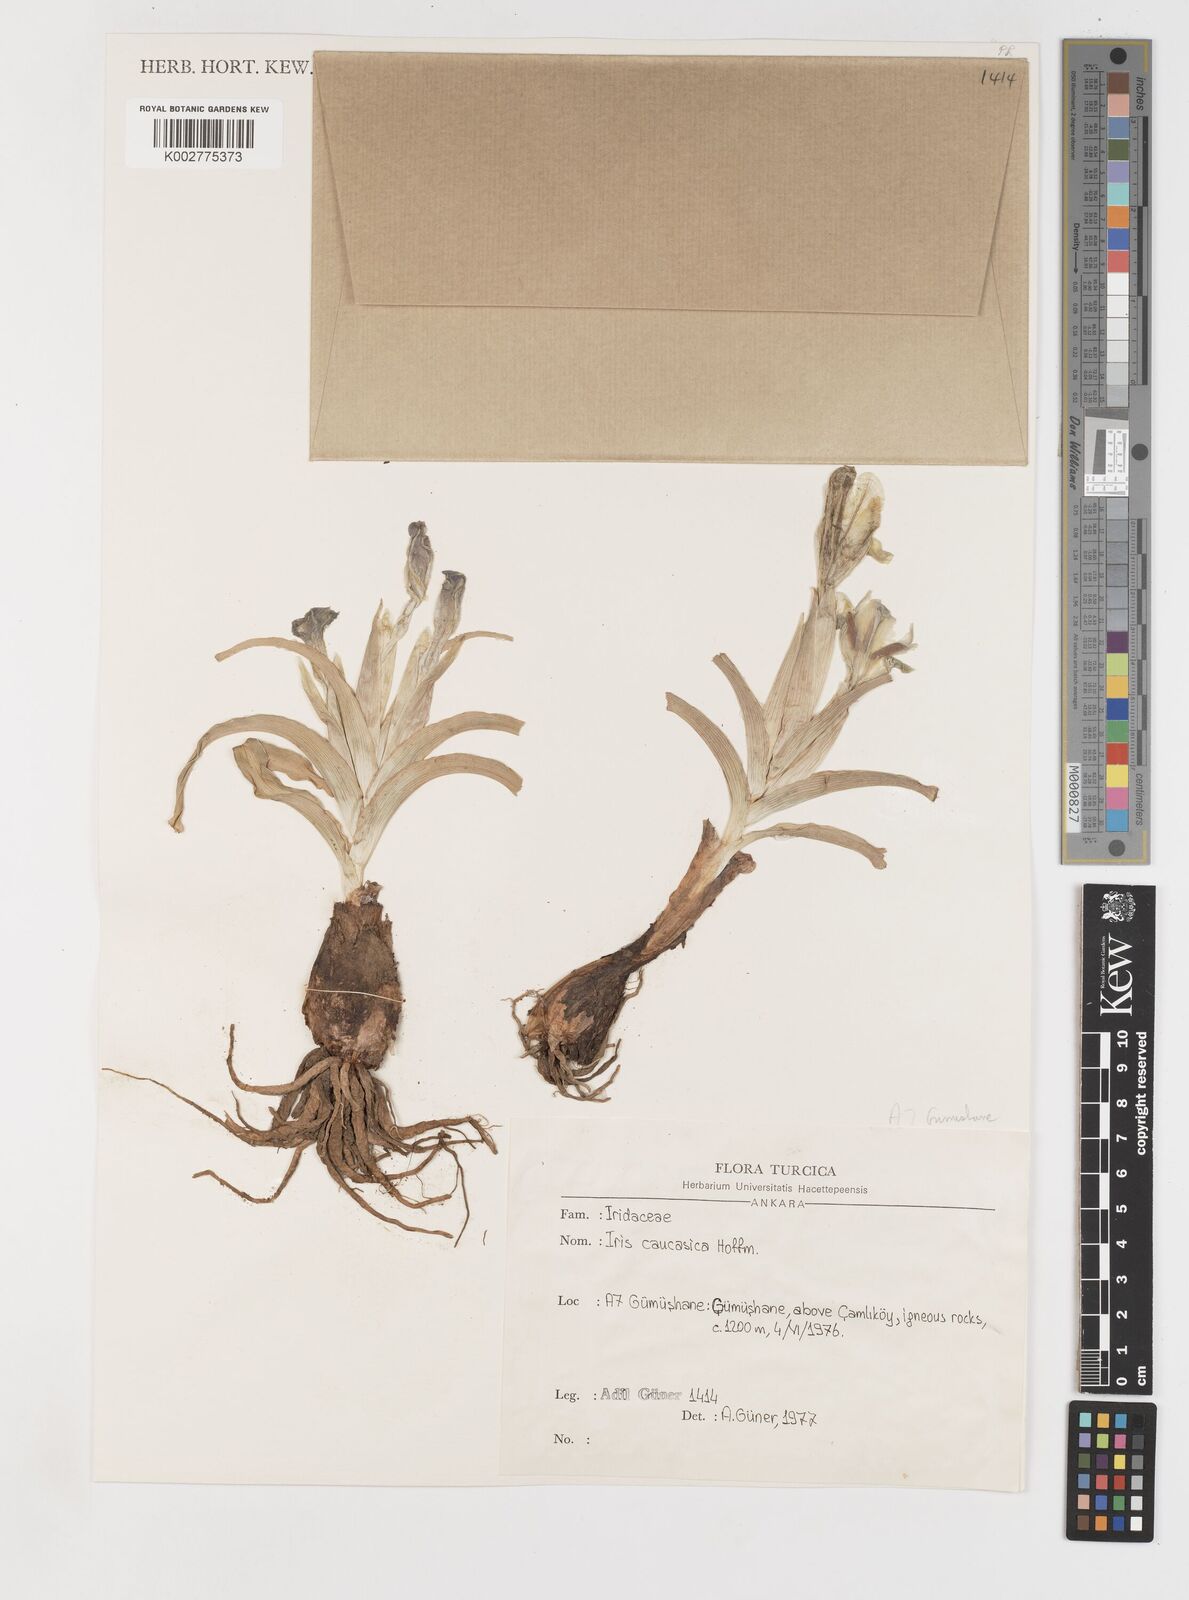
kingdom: Plantae
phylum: Tracheophyta
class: Liliopsida
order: Asparagales
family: Iridaceae
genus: Iris
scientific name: Iris caucasica
